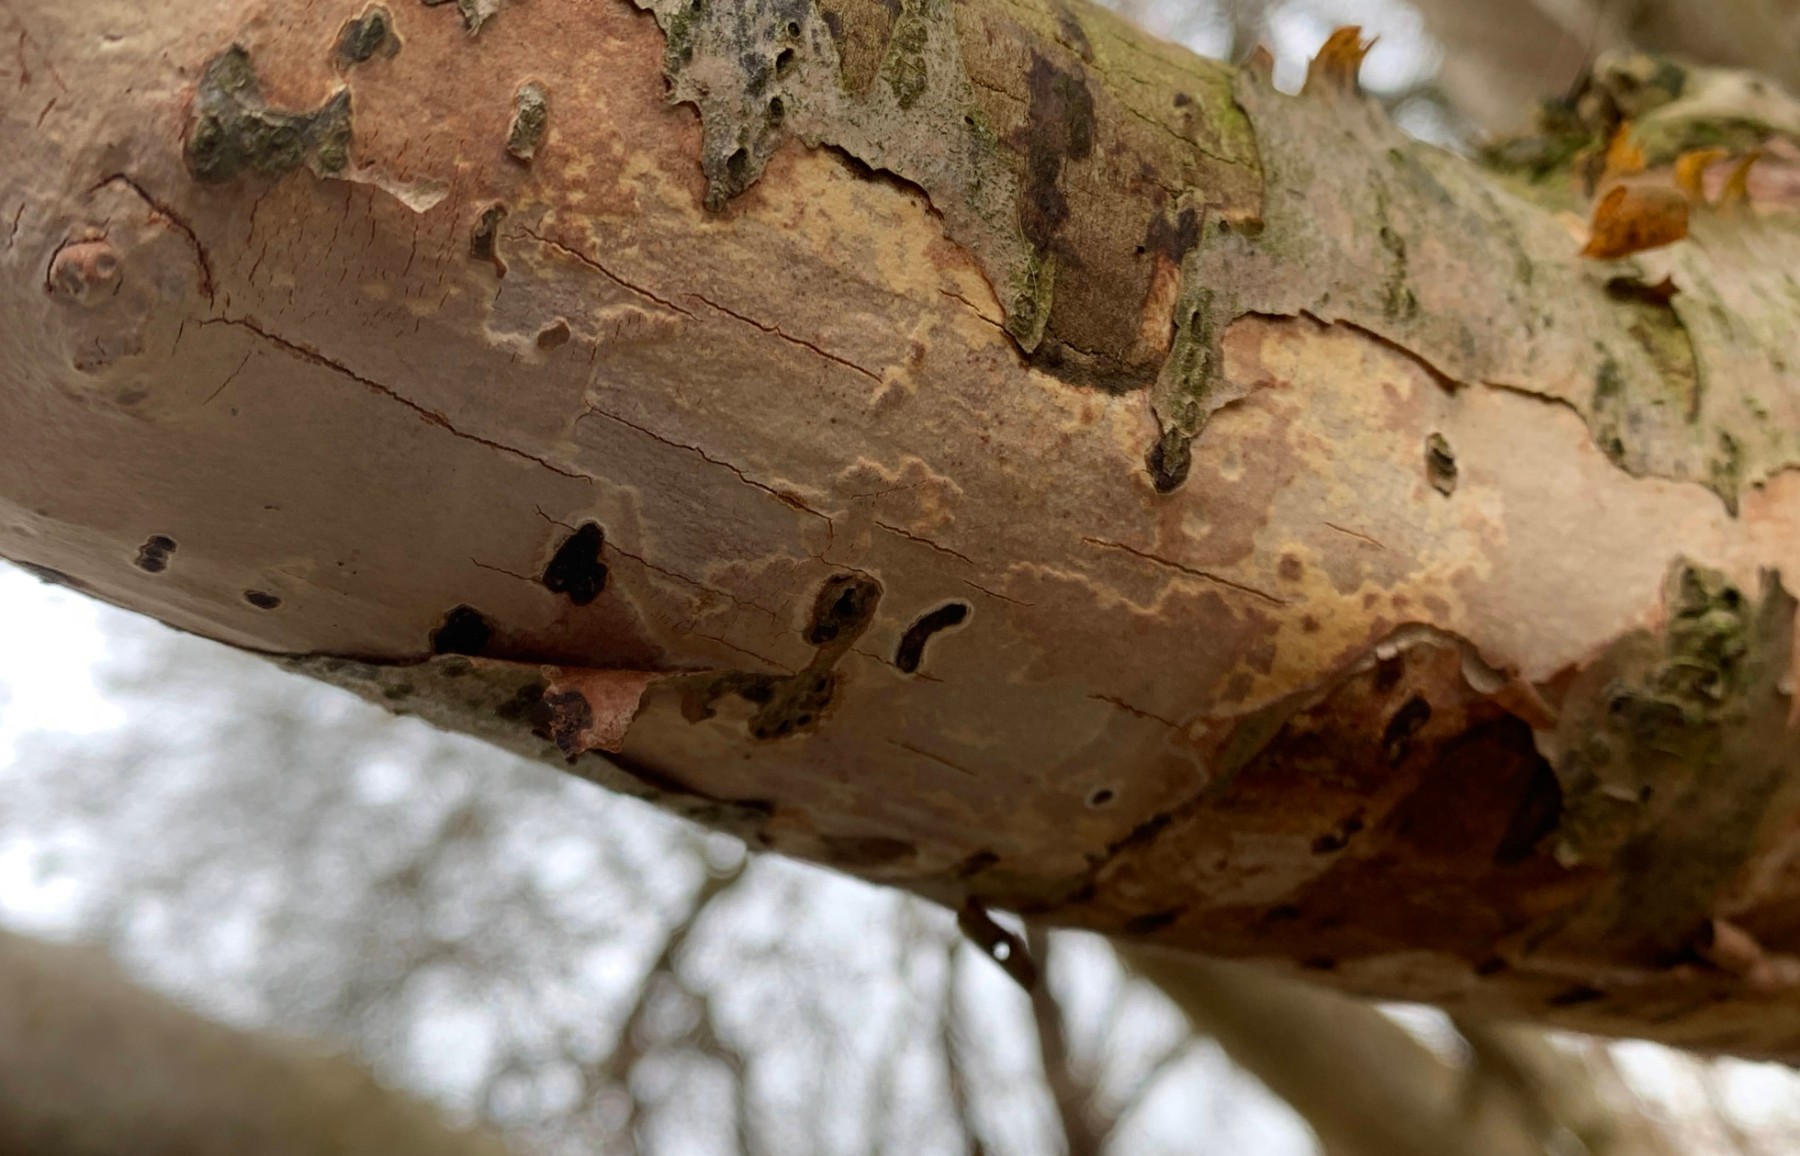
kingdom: Fungi
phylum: Basidiomycota
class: Agaricomycetes
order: Corticiales
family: Vuilleminiaceae
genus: Vuilleminia
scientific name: Vuilleminia coryli
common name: hassel-barksprænger
